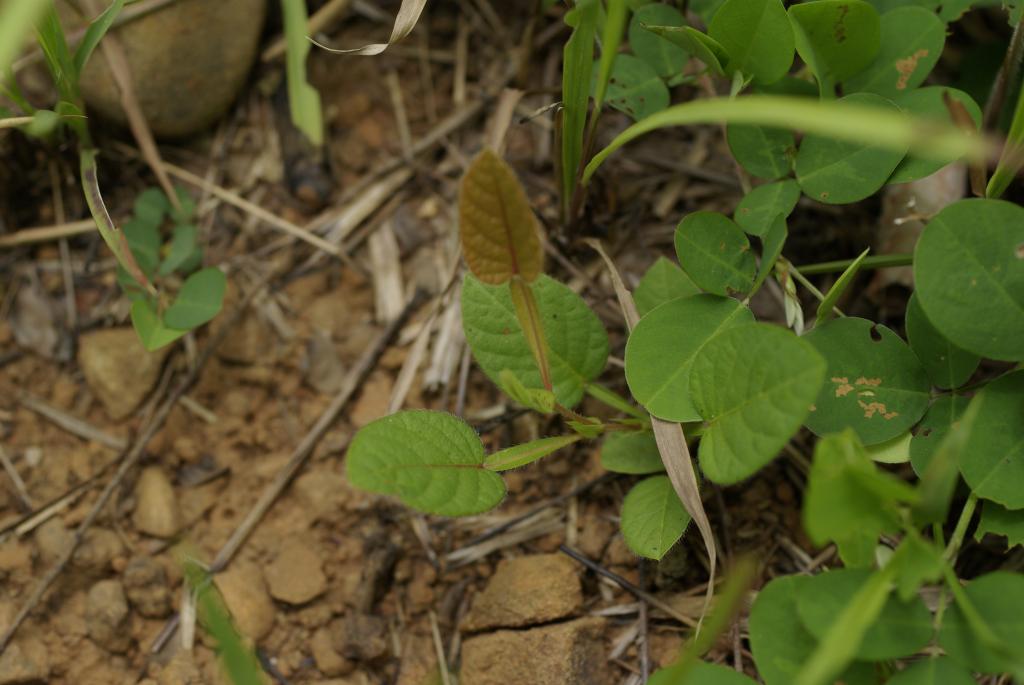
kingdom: Plantae
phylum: Tracheophyta
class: Magnoliopsida
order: Fabales
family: Fabaceae
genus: Tadehagi
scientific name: Tadehagi pseudotriquetrum
